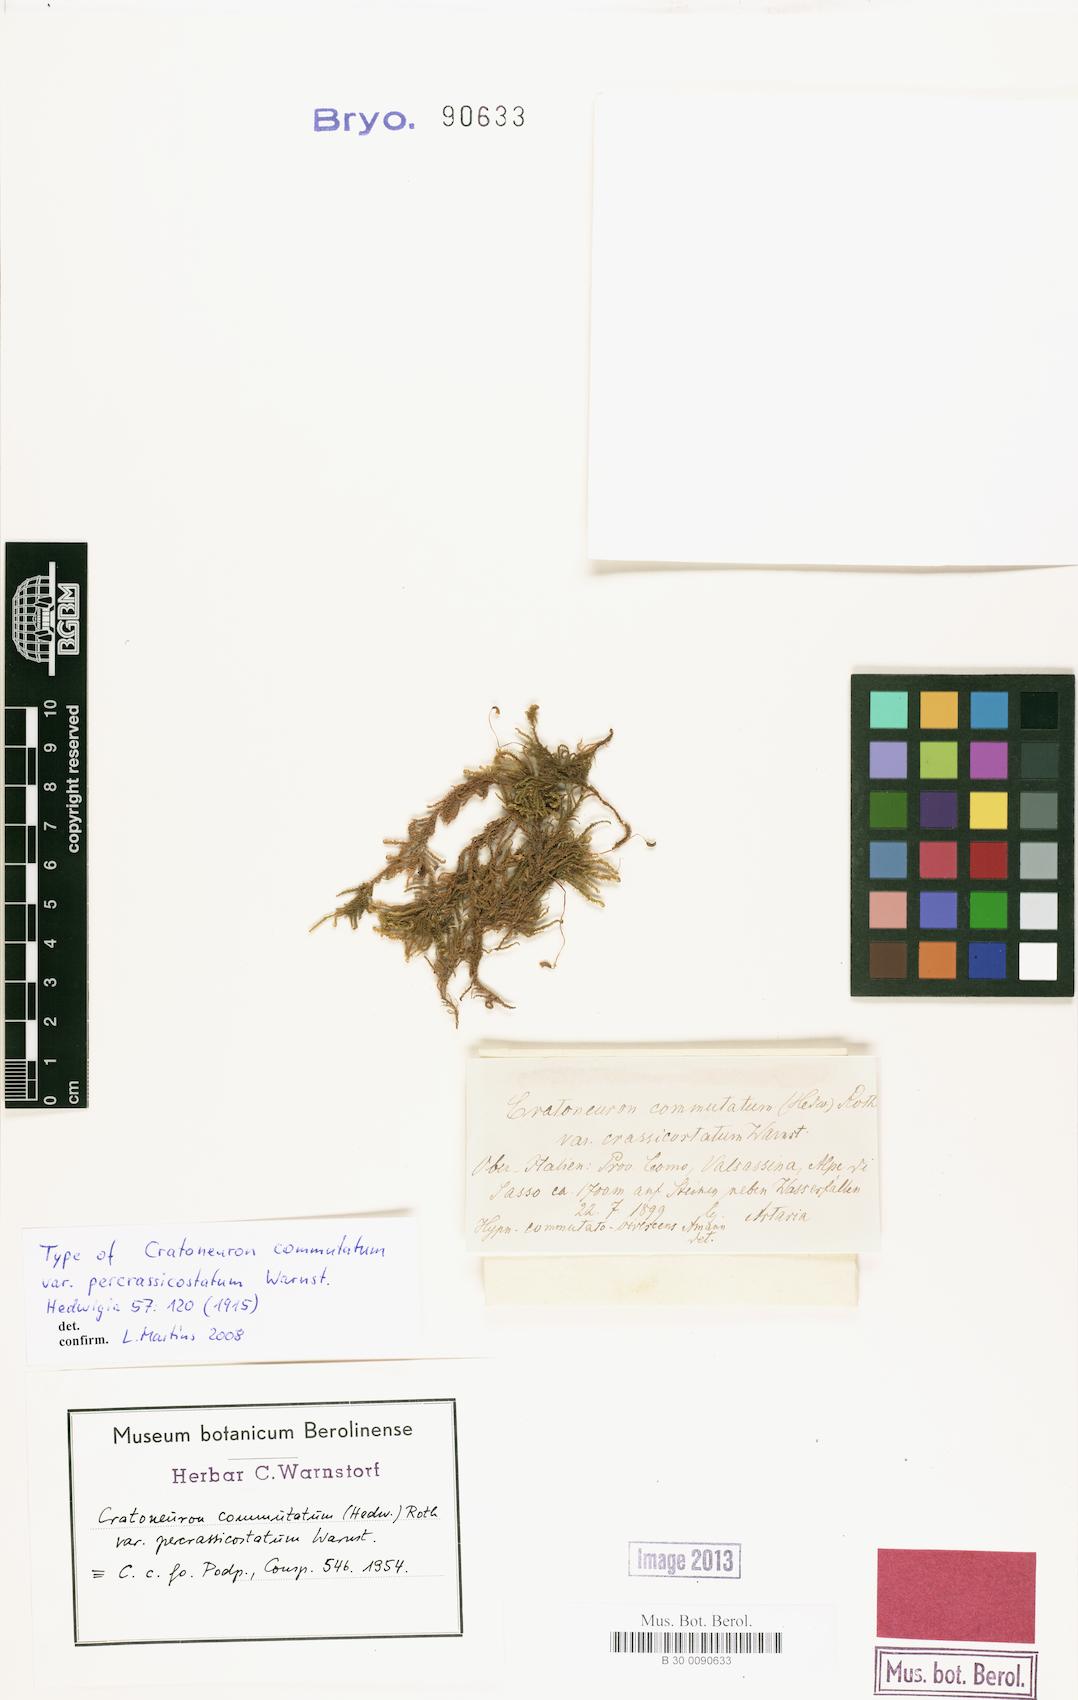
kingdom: Plantae
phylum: Bryophyta
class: Bryopsida
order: Hypnales
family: Amblystegiaceae
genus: Palustriella
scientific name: Palustriella commutata
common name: Curled hook-moss
